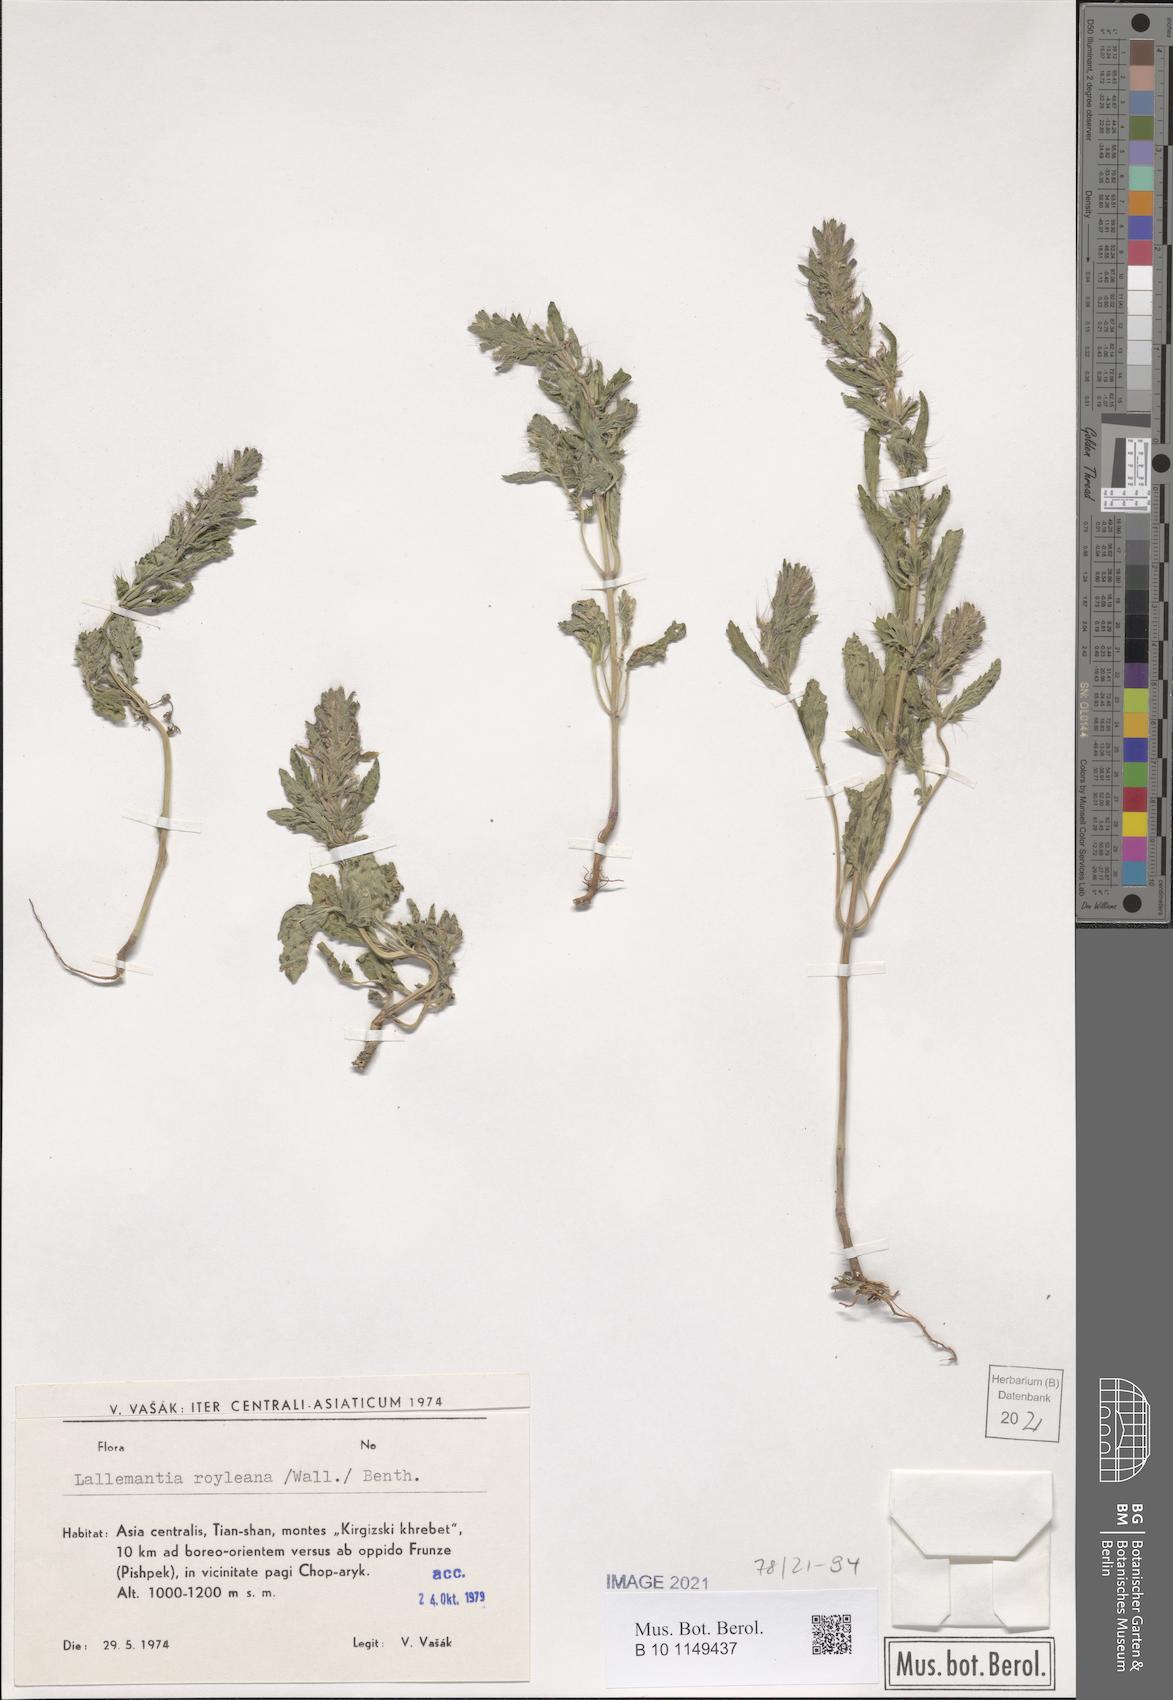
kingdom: Plantae
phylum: Tracheophyta
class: Magnoliopsida
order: Lamiales
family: Lamiaceae
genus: Lallemantia
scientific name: Lallemantia royleana
